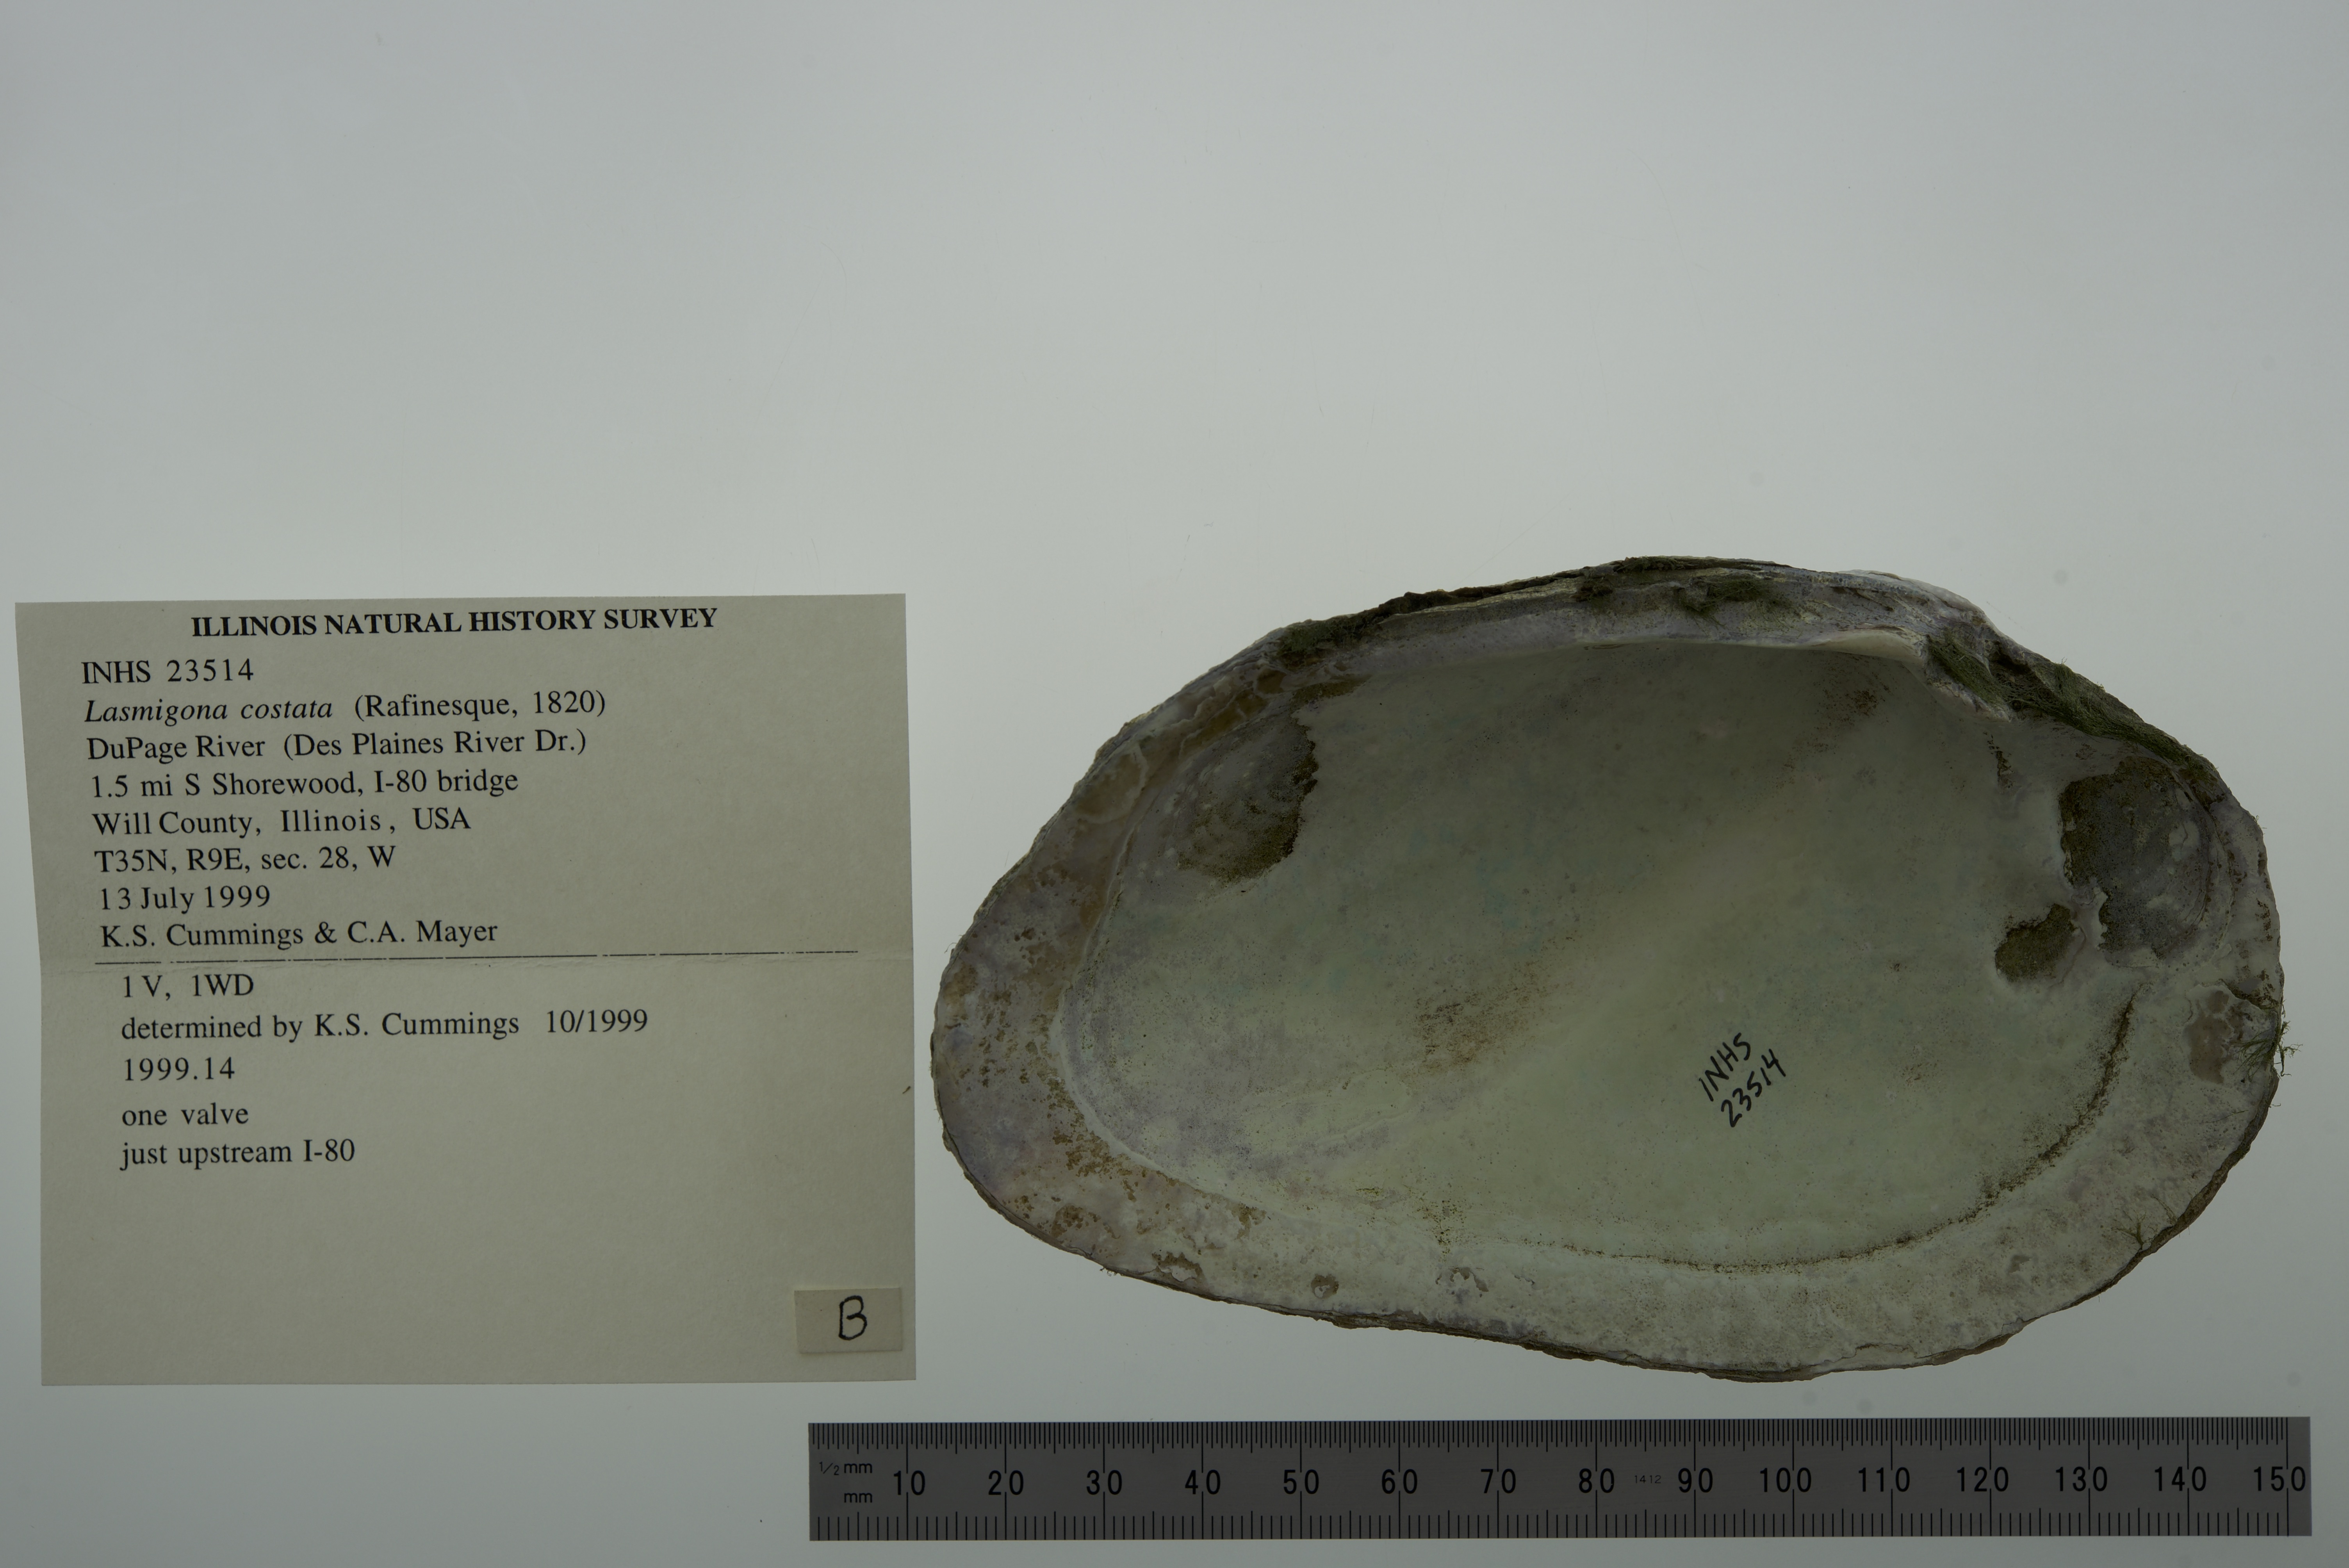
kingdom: Animalia
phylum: Mollusca
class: Bivalvia
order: Unionida
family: Unionidae
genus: Lasmigona
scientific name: Lasmigona costata
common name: Flutedshell
